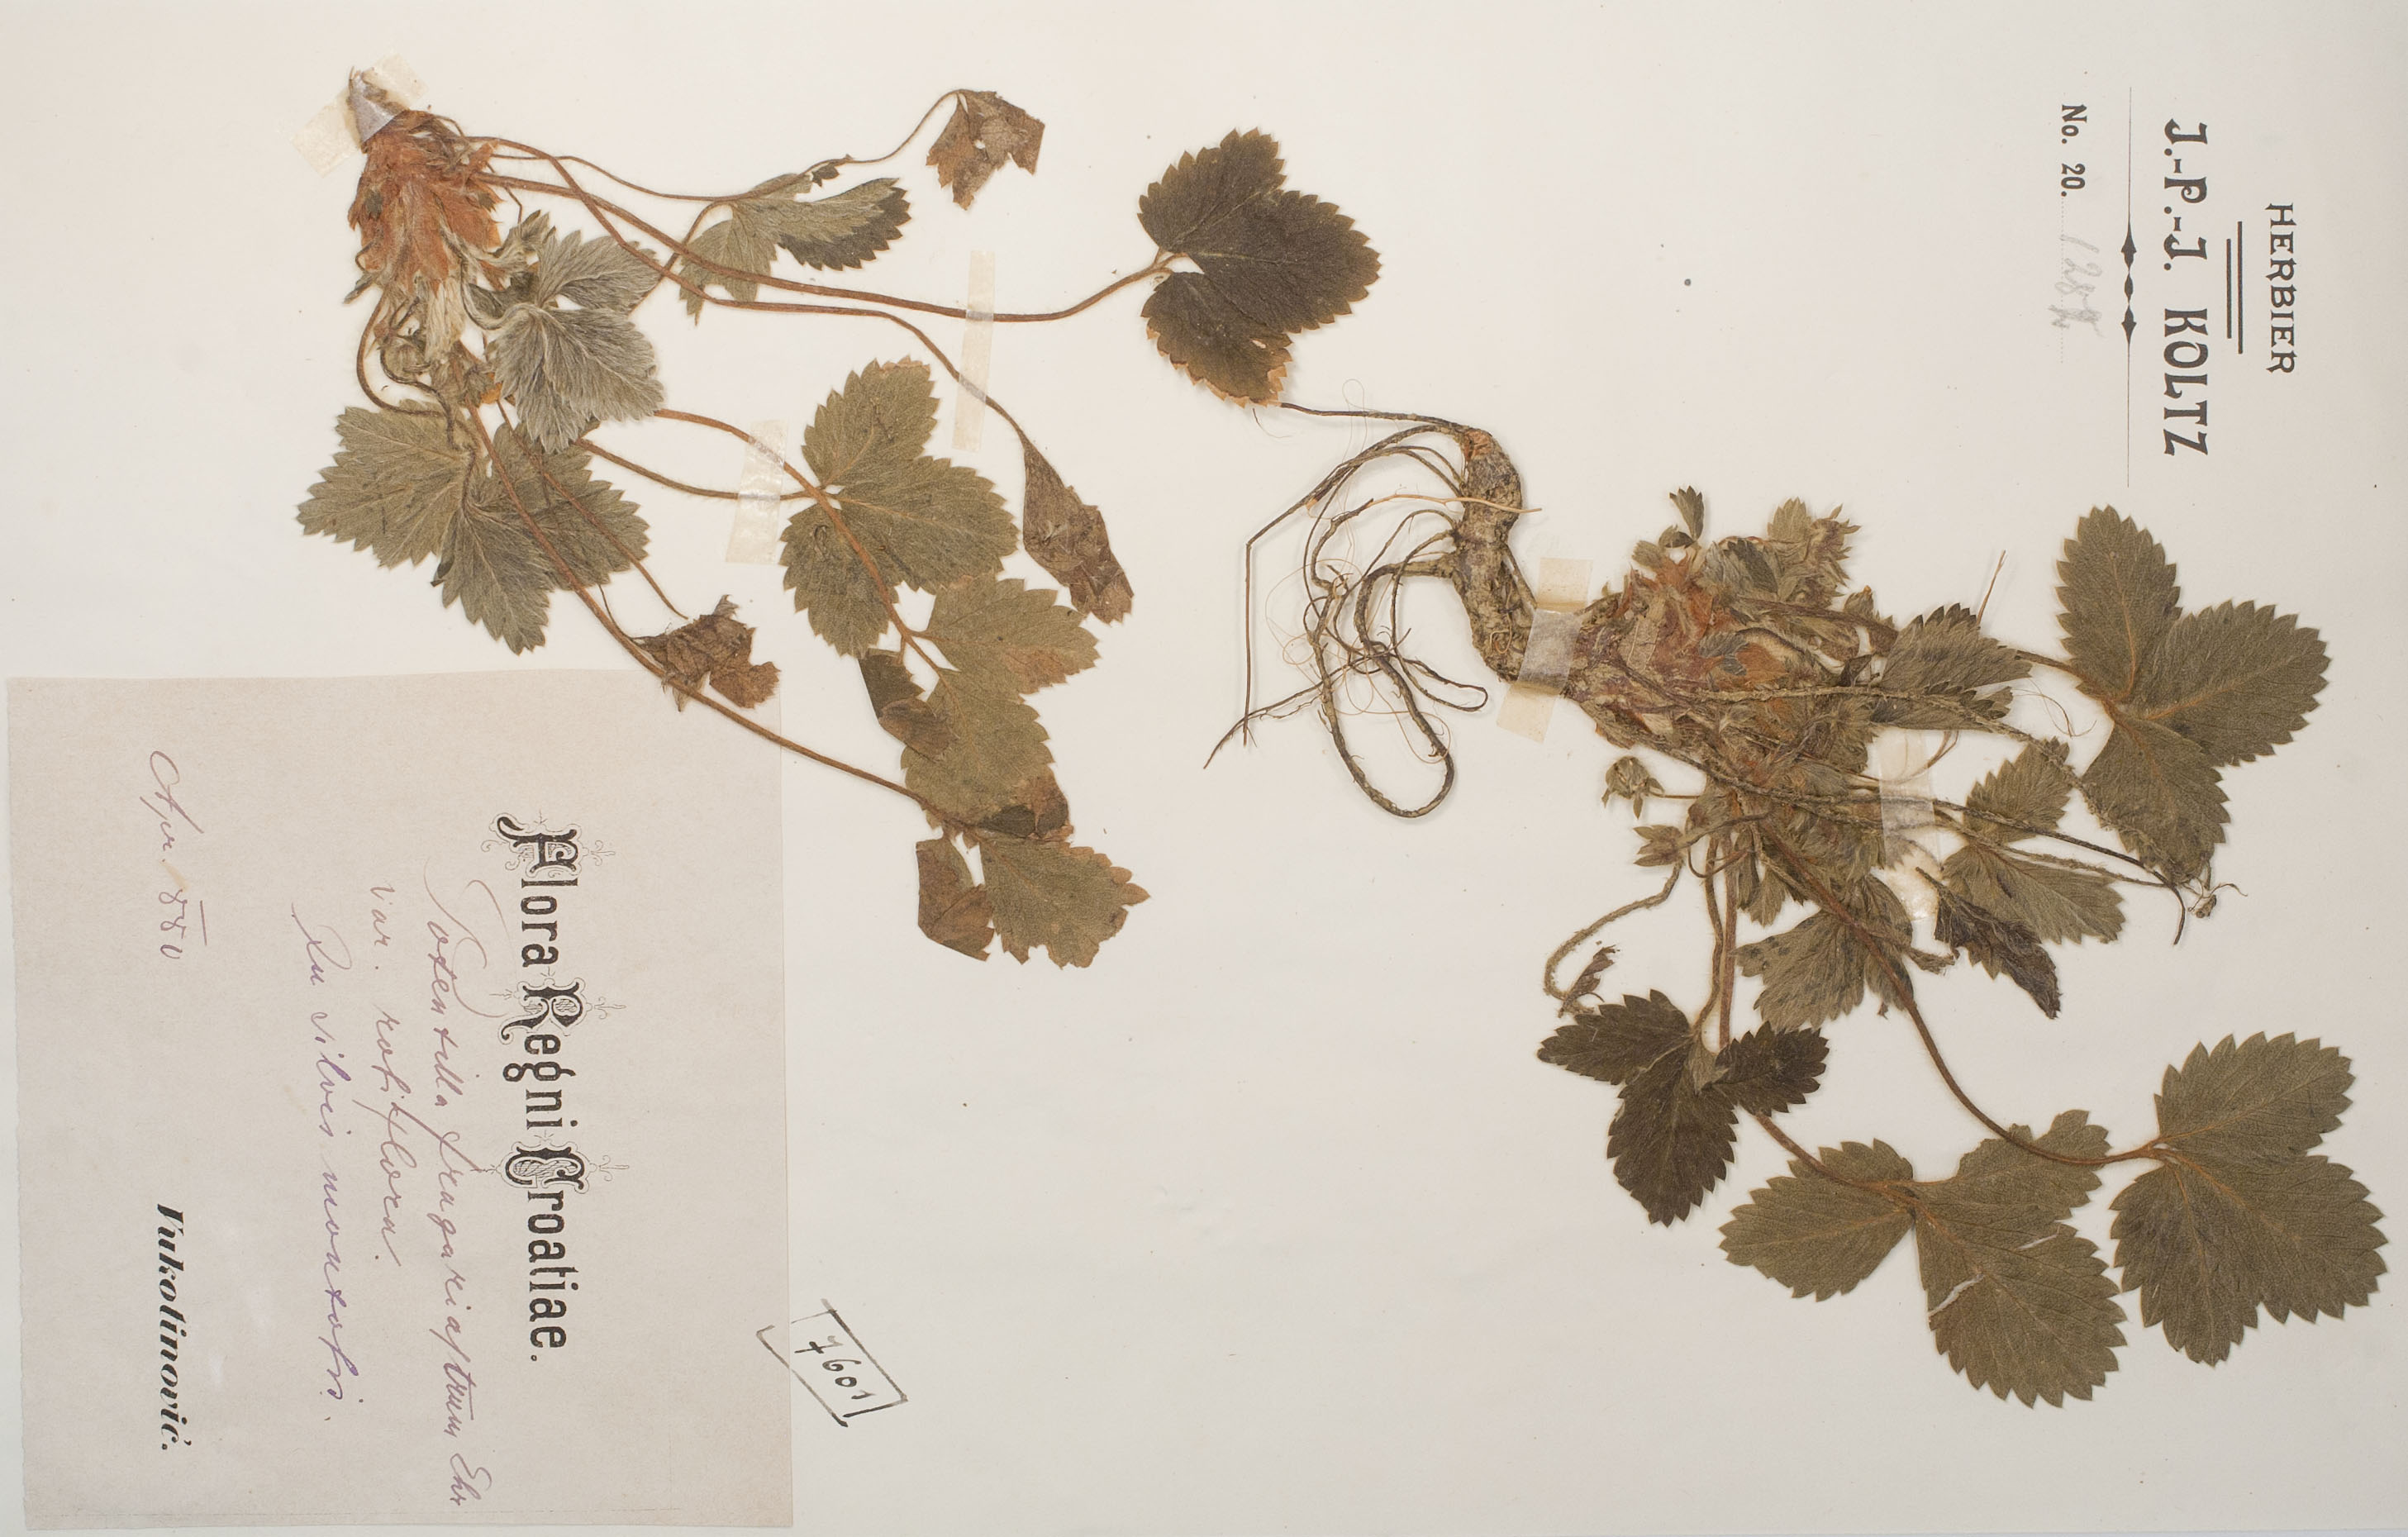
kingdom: Plantae
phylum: Tracheophyta
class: Magnoliopsida
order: Rosales
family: Rosaceae
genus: Potentilla
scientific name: Potentilla sterilis
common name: Barren strawberry
